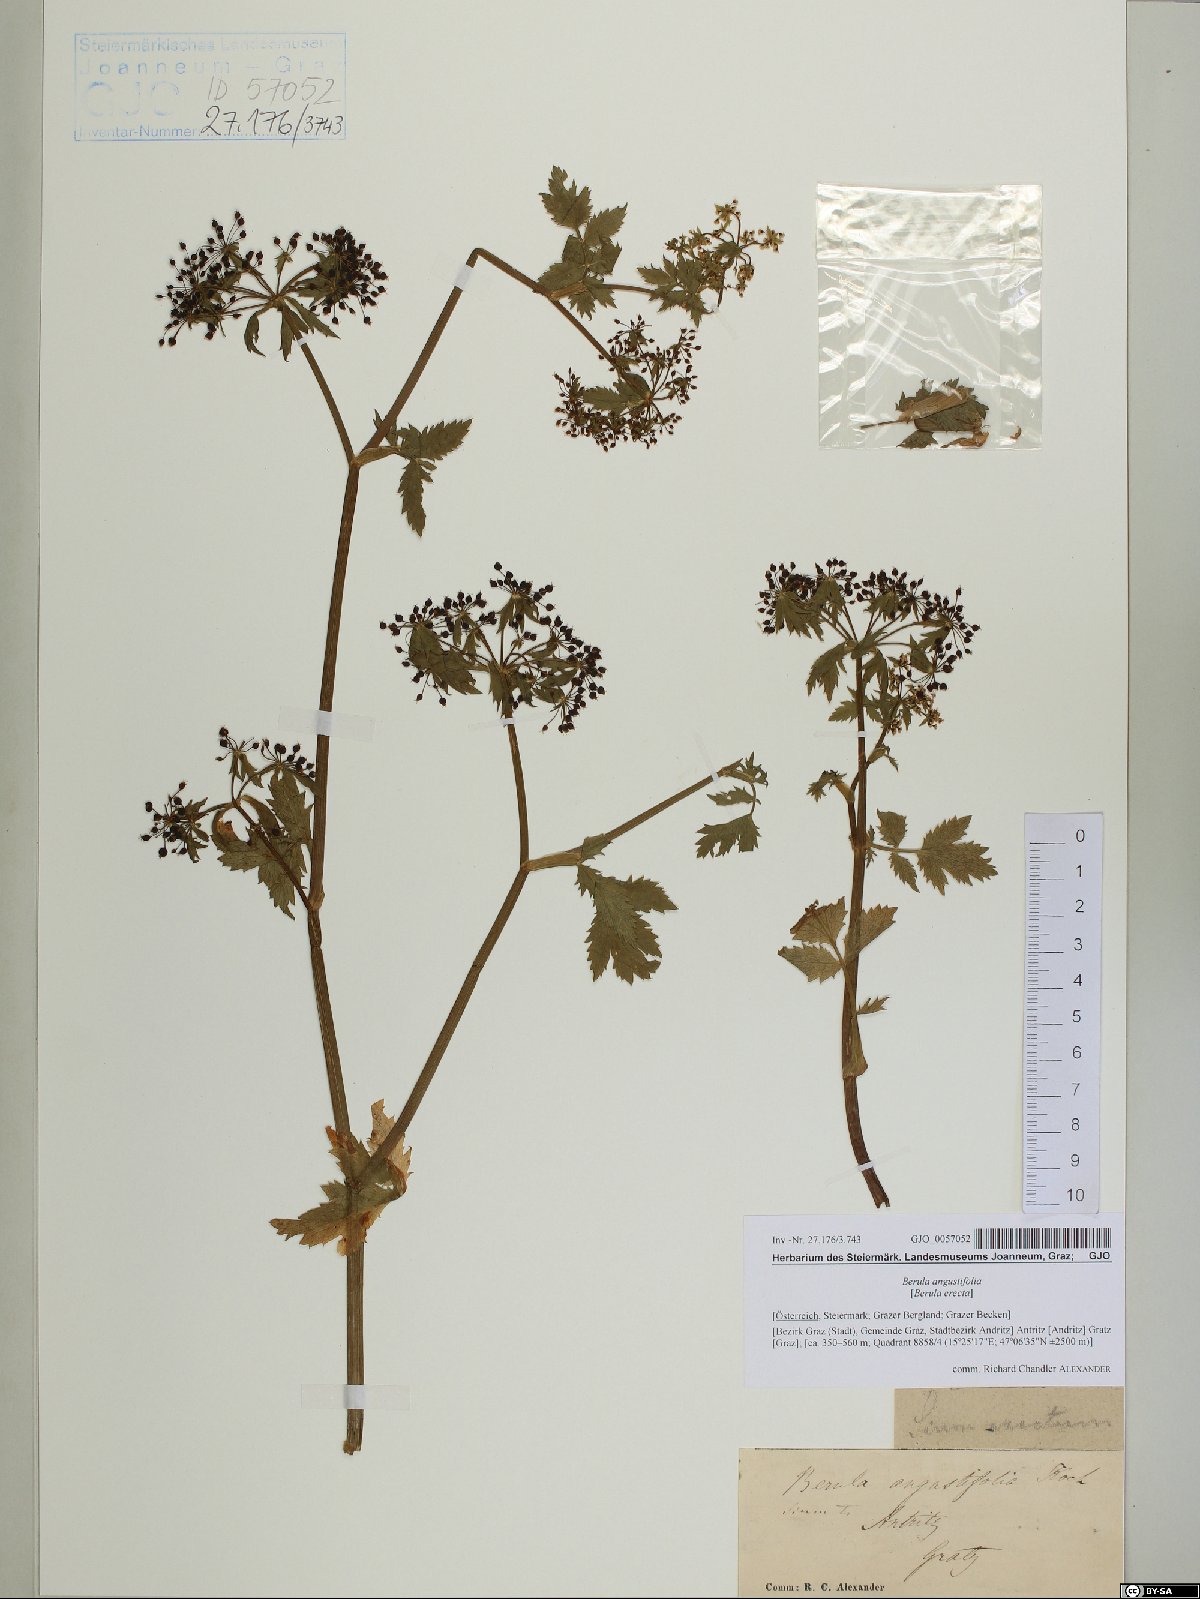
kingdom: Plantae
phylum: Tracheophyta
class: Magnoliopsida
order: Apiales
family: Apiaceae
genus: Berula
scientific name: Berula erecta
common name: Lesser water-parsnip
